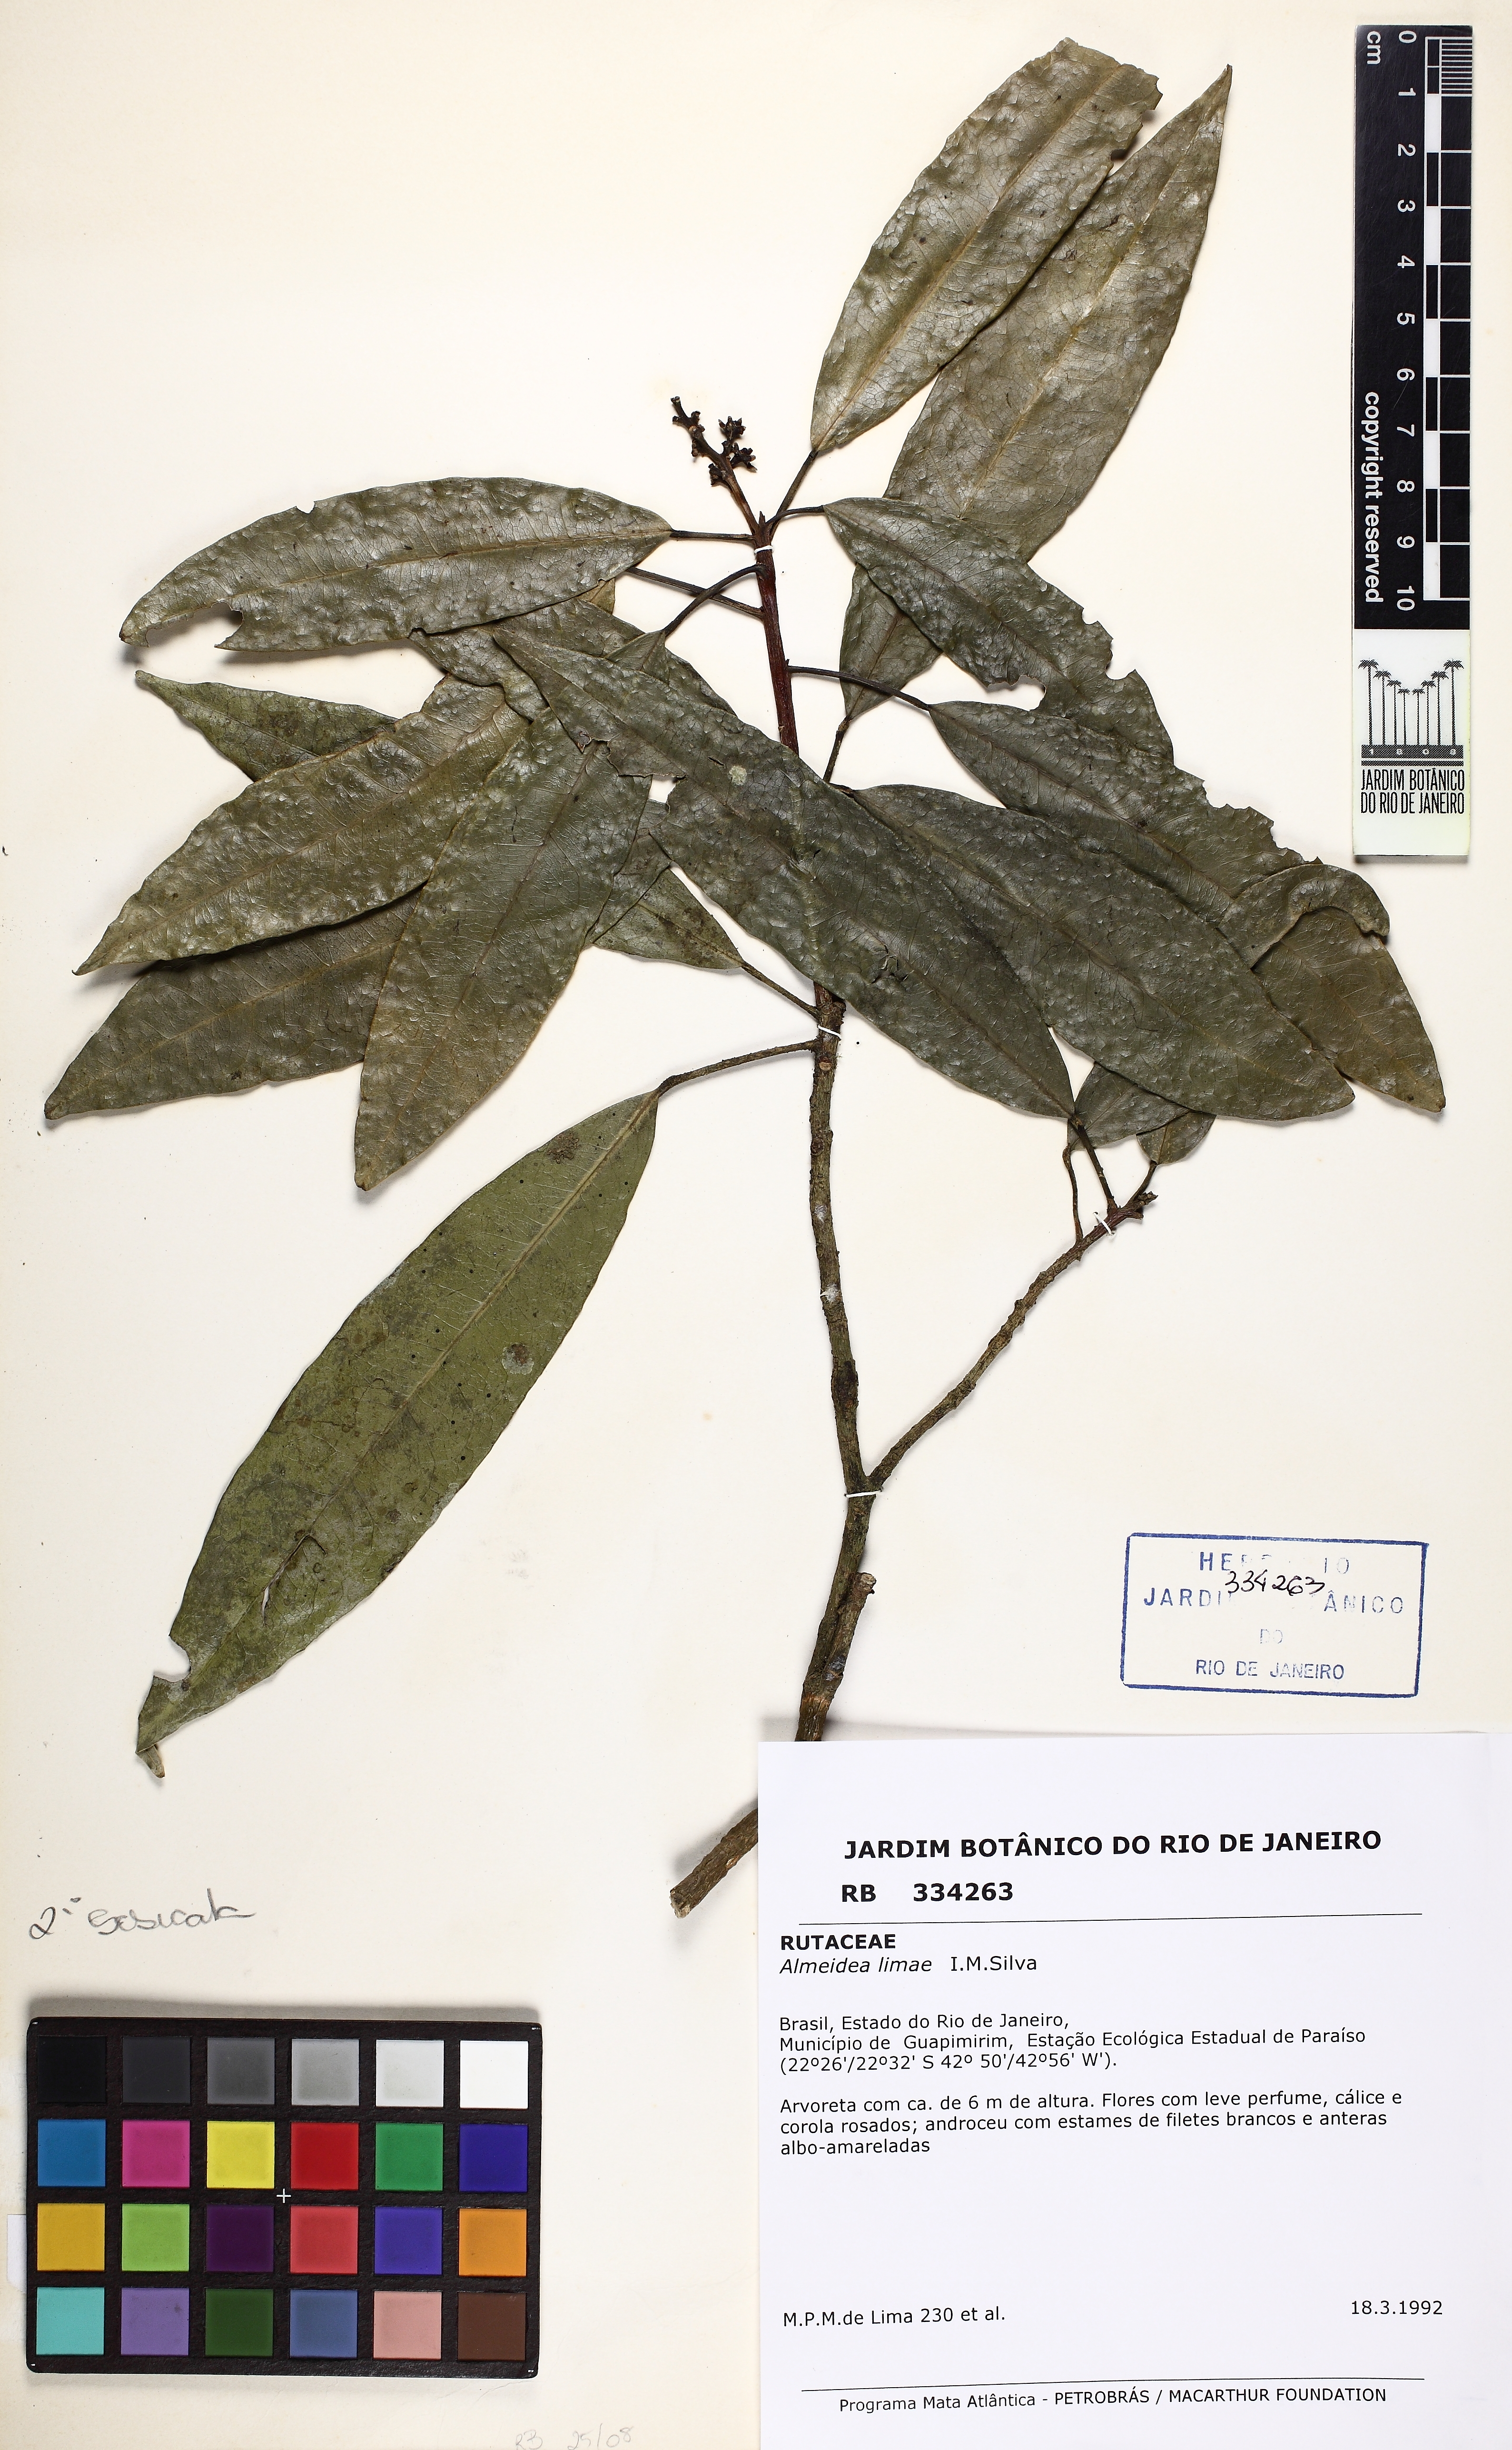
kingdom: Plantae
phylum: Tracheophyta
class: Magnoliopsida
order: Sapindales
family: Rutaceae
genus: Conchocarpus
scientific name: Conchocarpus ruber
